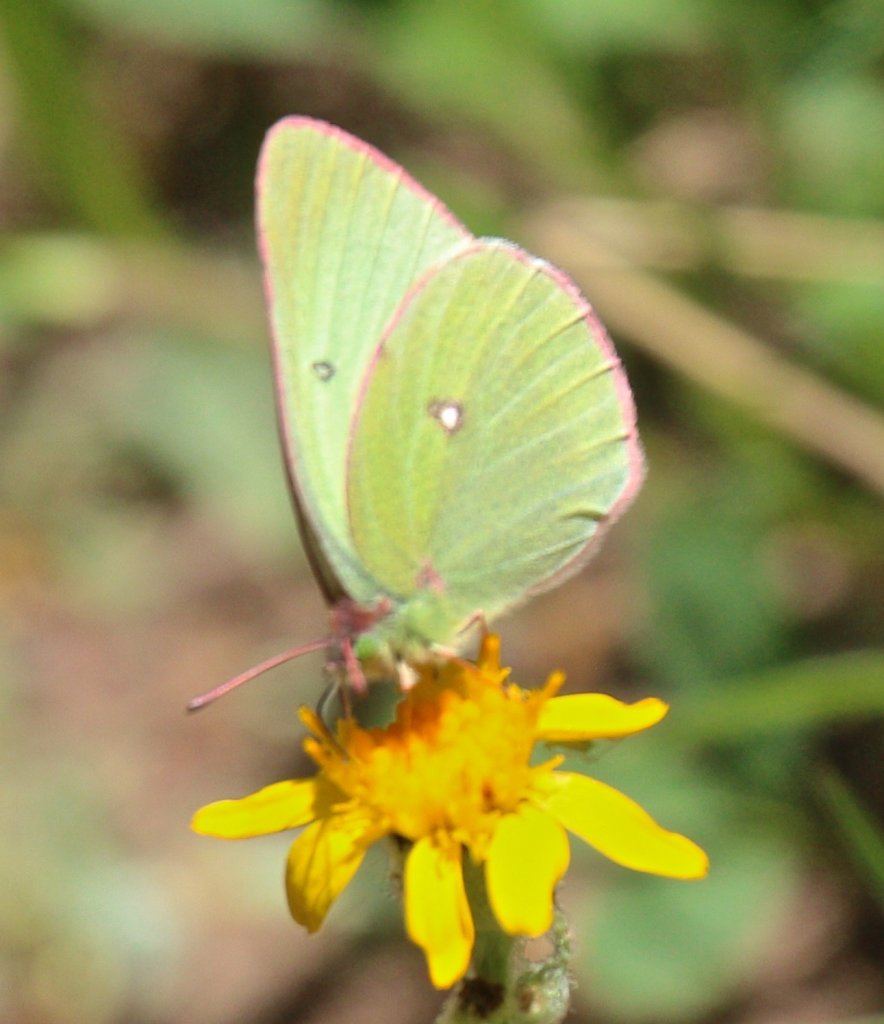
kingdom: Animalia
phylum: Arthropoda
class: Insecta
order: Lepidoptera
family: Pieridae
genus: Colias
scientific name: Colias scudderi
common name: Scudder's Sulphur
